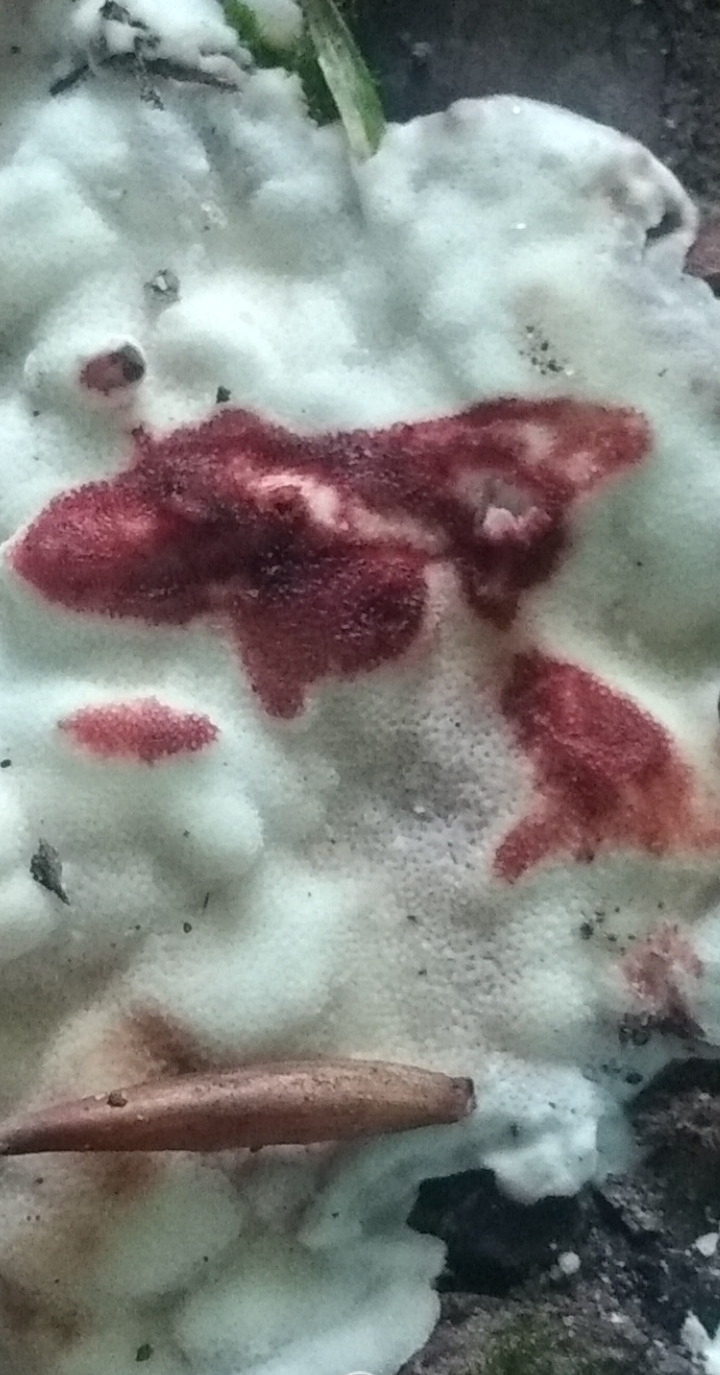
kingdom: Fungi
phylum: Basidiomycota
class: Agaricomycetes
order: Polyporales
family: Meripilaceae
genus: Rigidoporus
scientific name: Rigidoporus sanguinolentus
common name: blod-skorpeporesvamp
